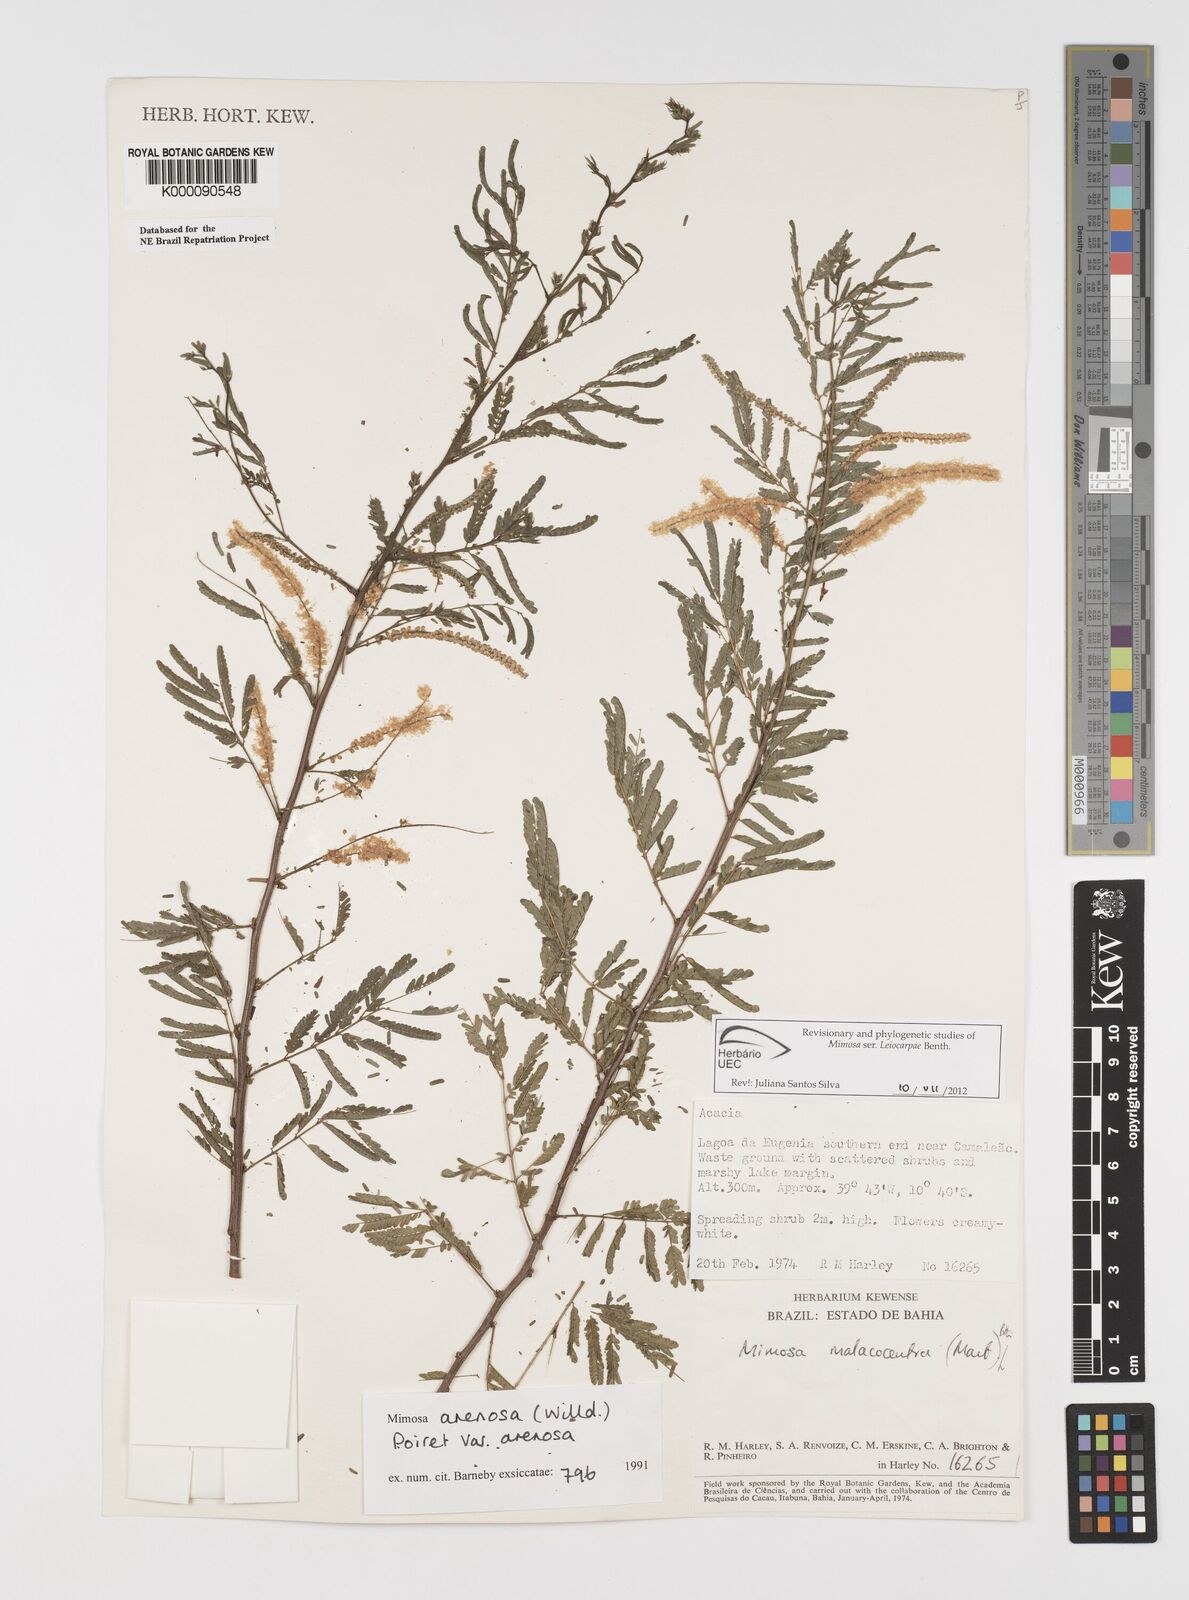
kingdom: Plantae
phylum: Tracheophyta
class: Magnoliopsida
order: Fabales
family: Fabaceae
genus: Mimosa
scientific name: Mimosa arenosa
